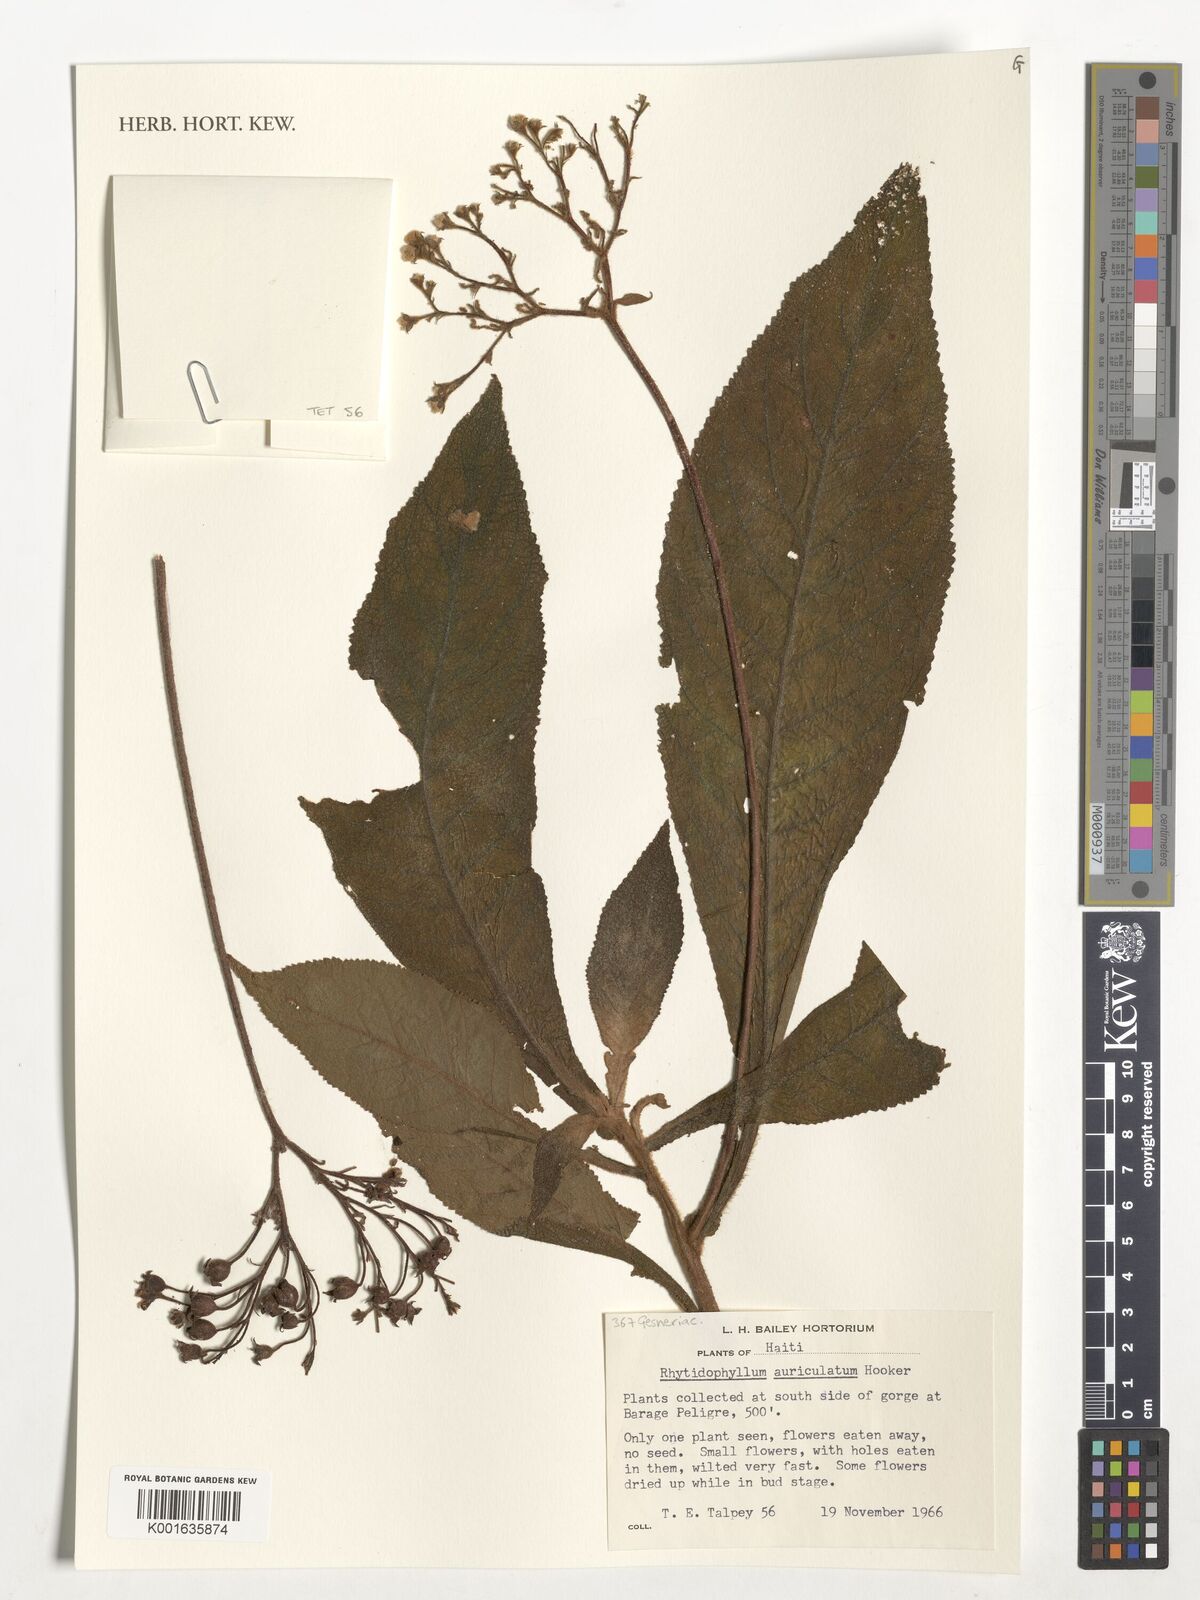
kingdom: Plantae
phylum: Tracheophyta
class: Magnoliopsida
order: Lamiales
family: Gesneriaceae
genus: Rhytidophyllum
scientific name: Rhytidophyllum auriculatum
